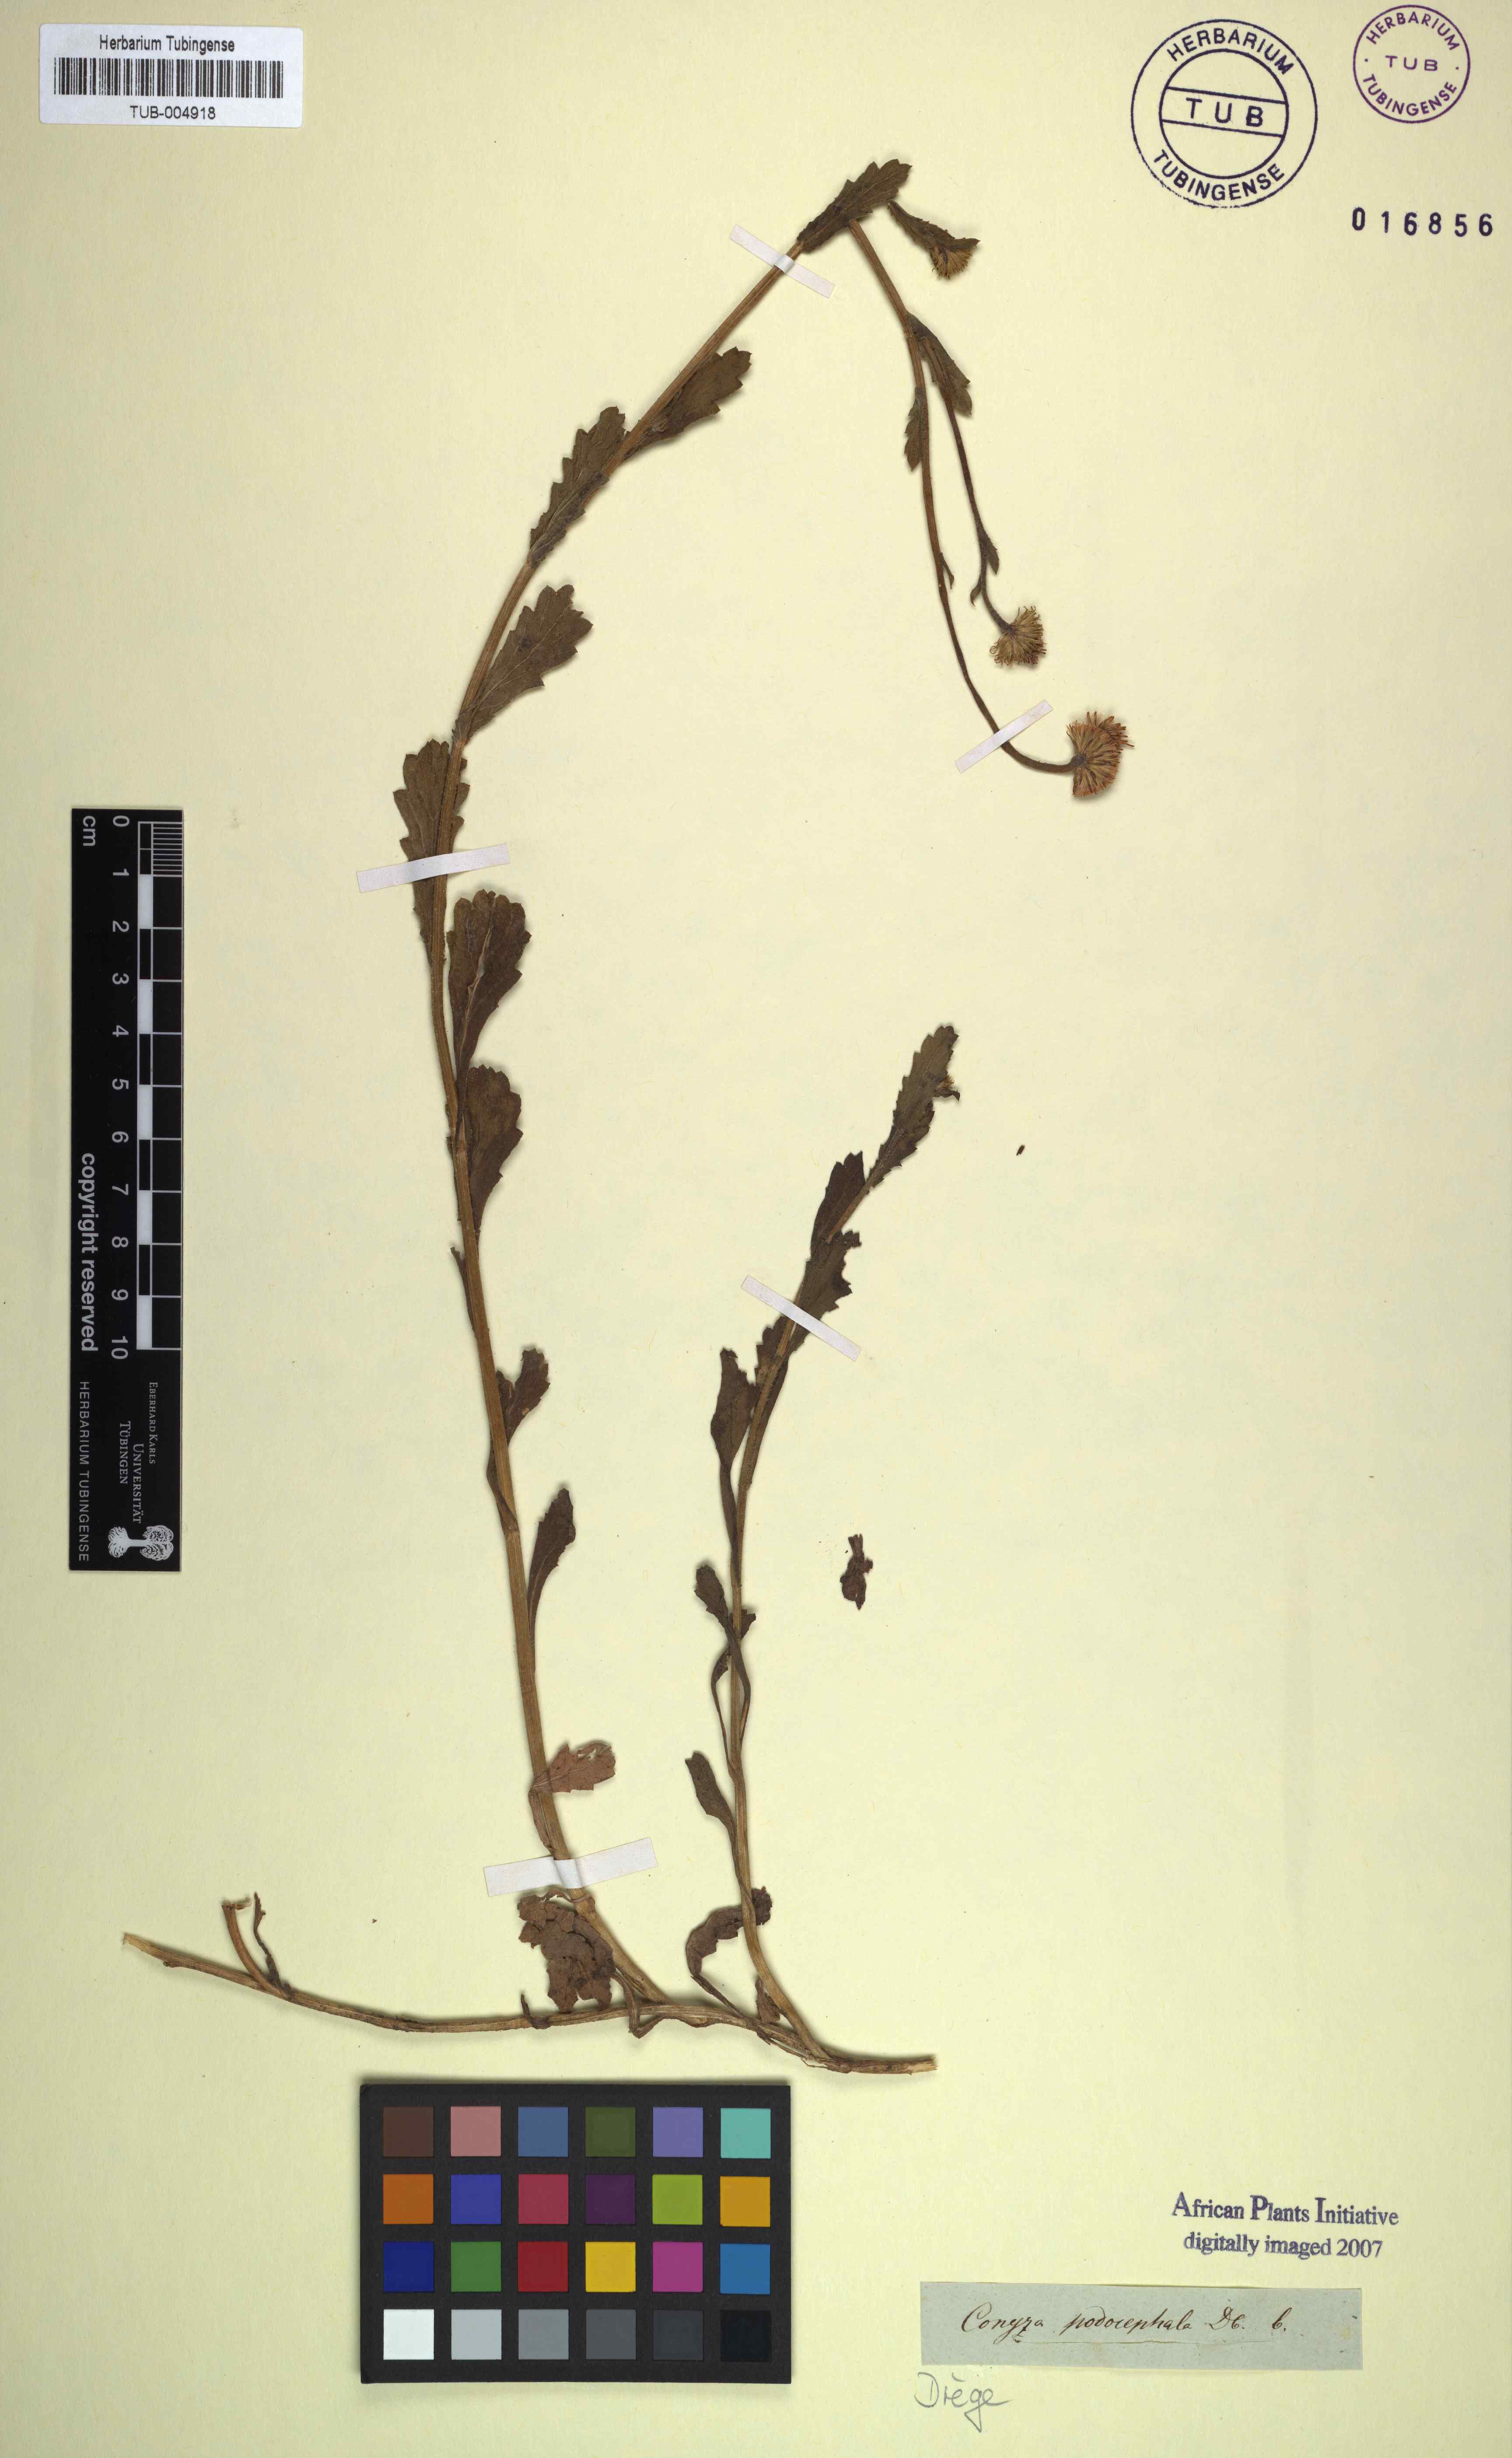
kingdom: Plantae
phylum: Tracheophyta
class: Magnoliopsida
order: Asterales
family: Asteraceae
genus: Nidorella
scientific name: Nidorella podocephala
